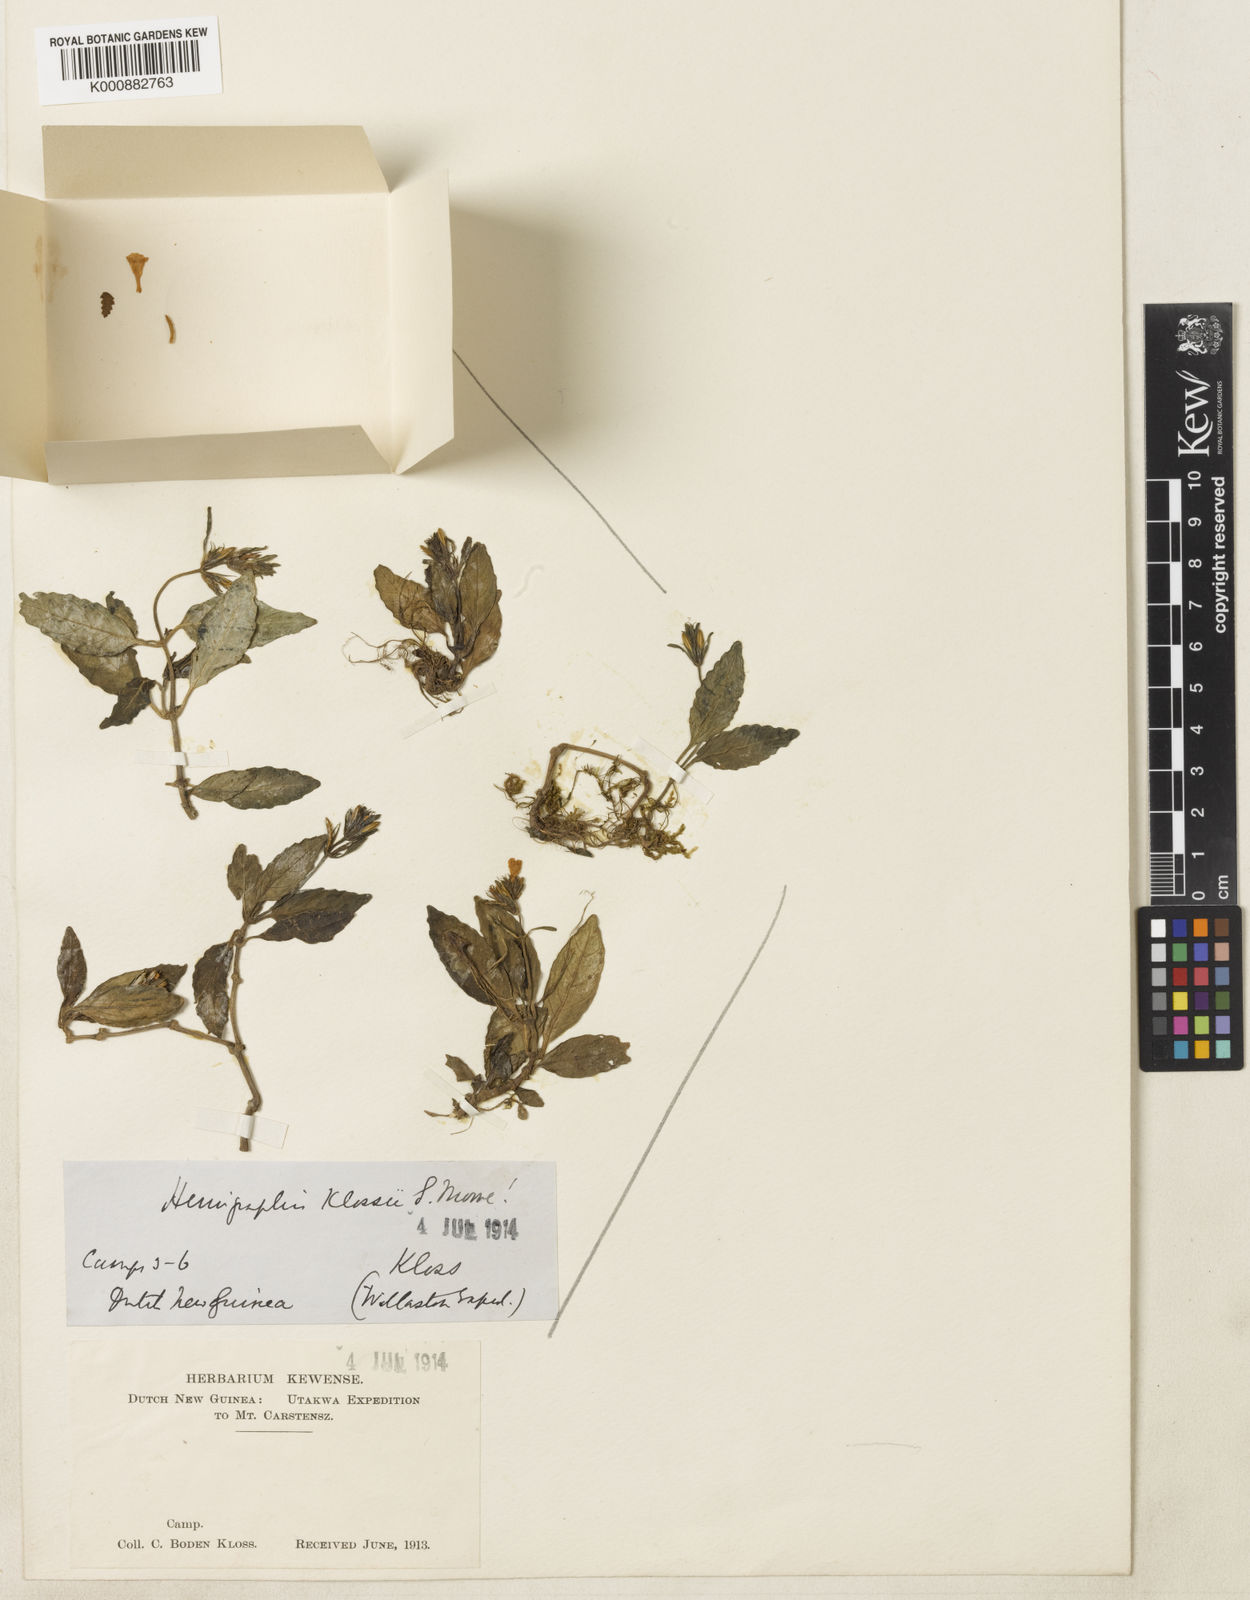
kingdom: Plantae
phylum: Tracheophyta
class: Magnoliopsida
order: Lamiales
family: Acanthaceae
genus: Strobilanthes
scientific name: Strobilanthes klossii
